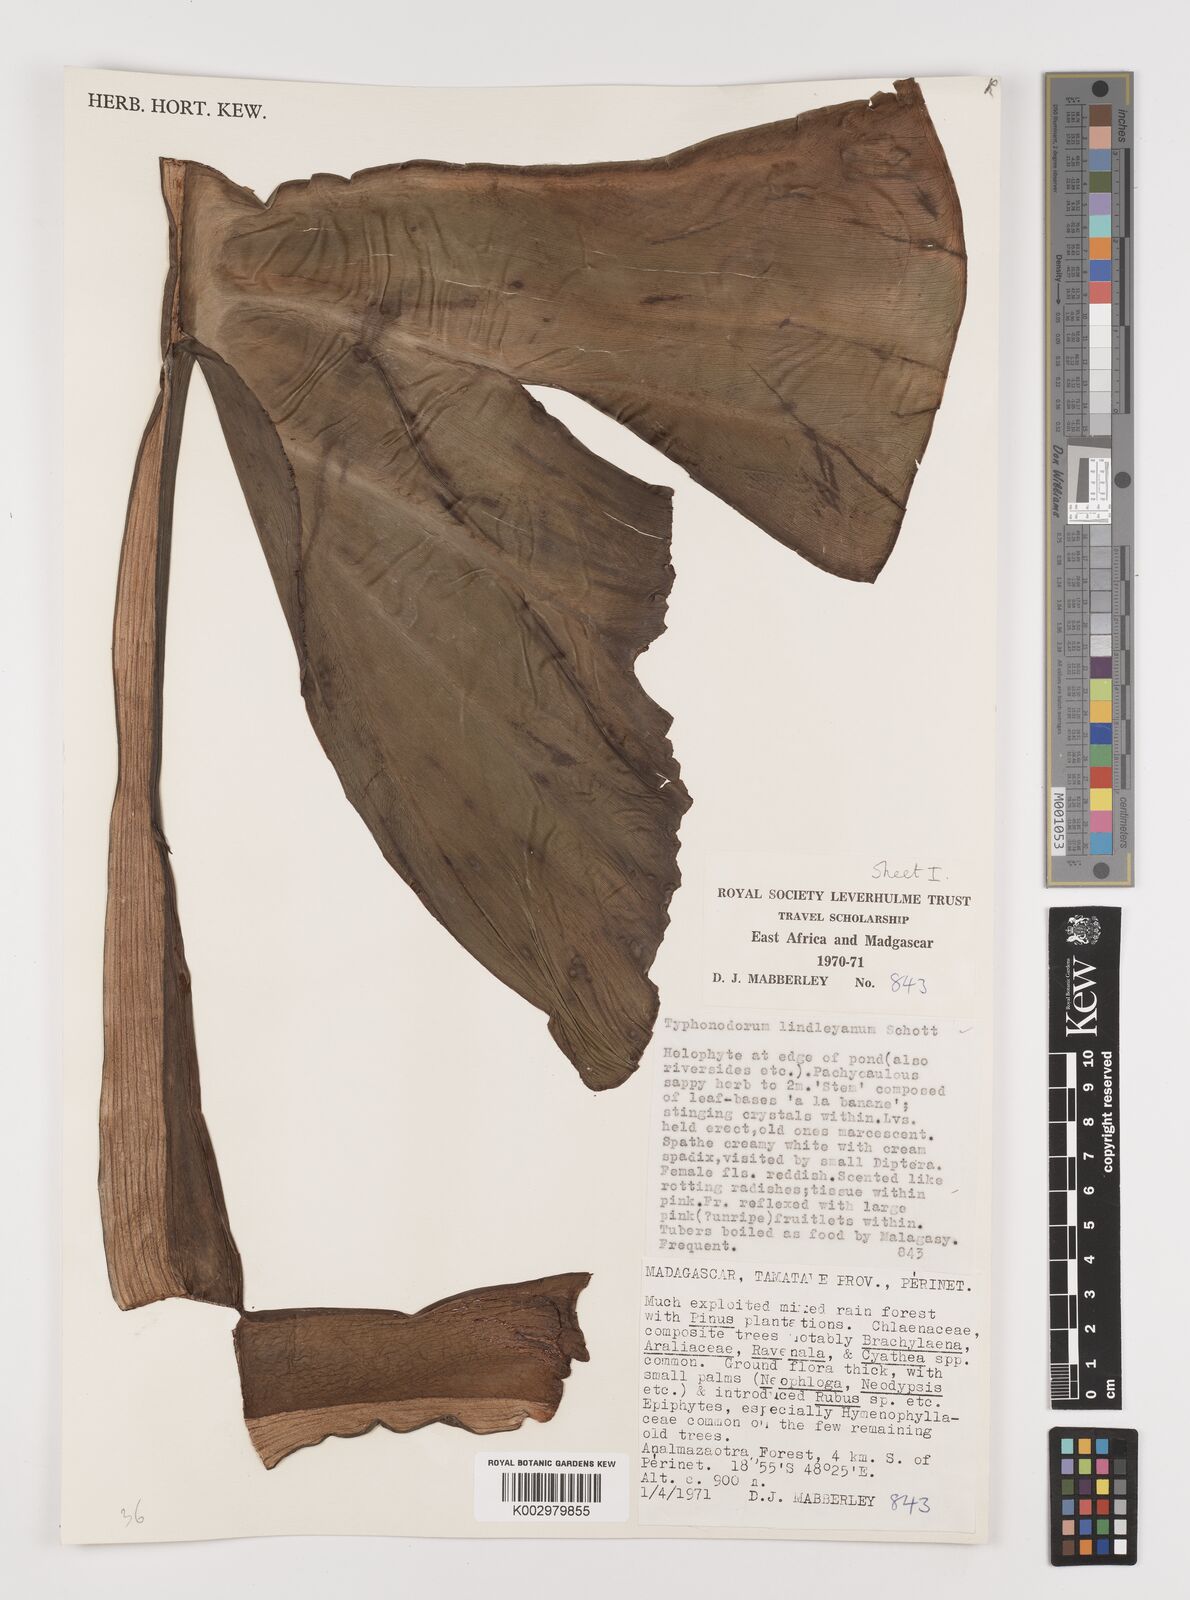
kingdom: Plantae
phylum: Tracheophyta
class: Liliopsida
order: Alismatales
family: Araceae
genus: Typhonodorum
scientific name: Typhonodorum lindleyanum
